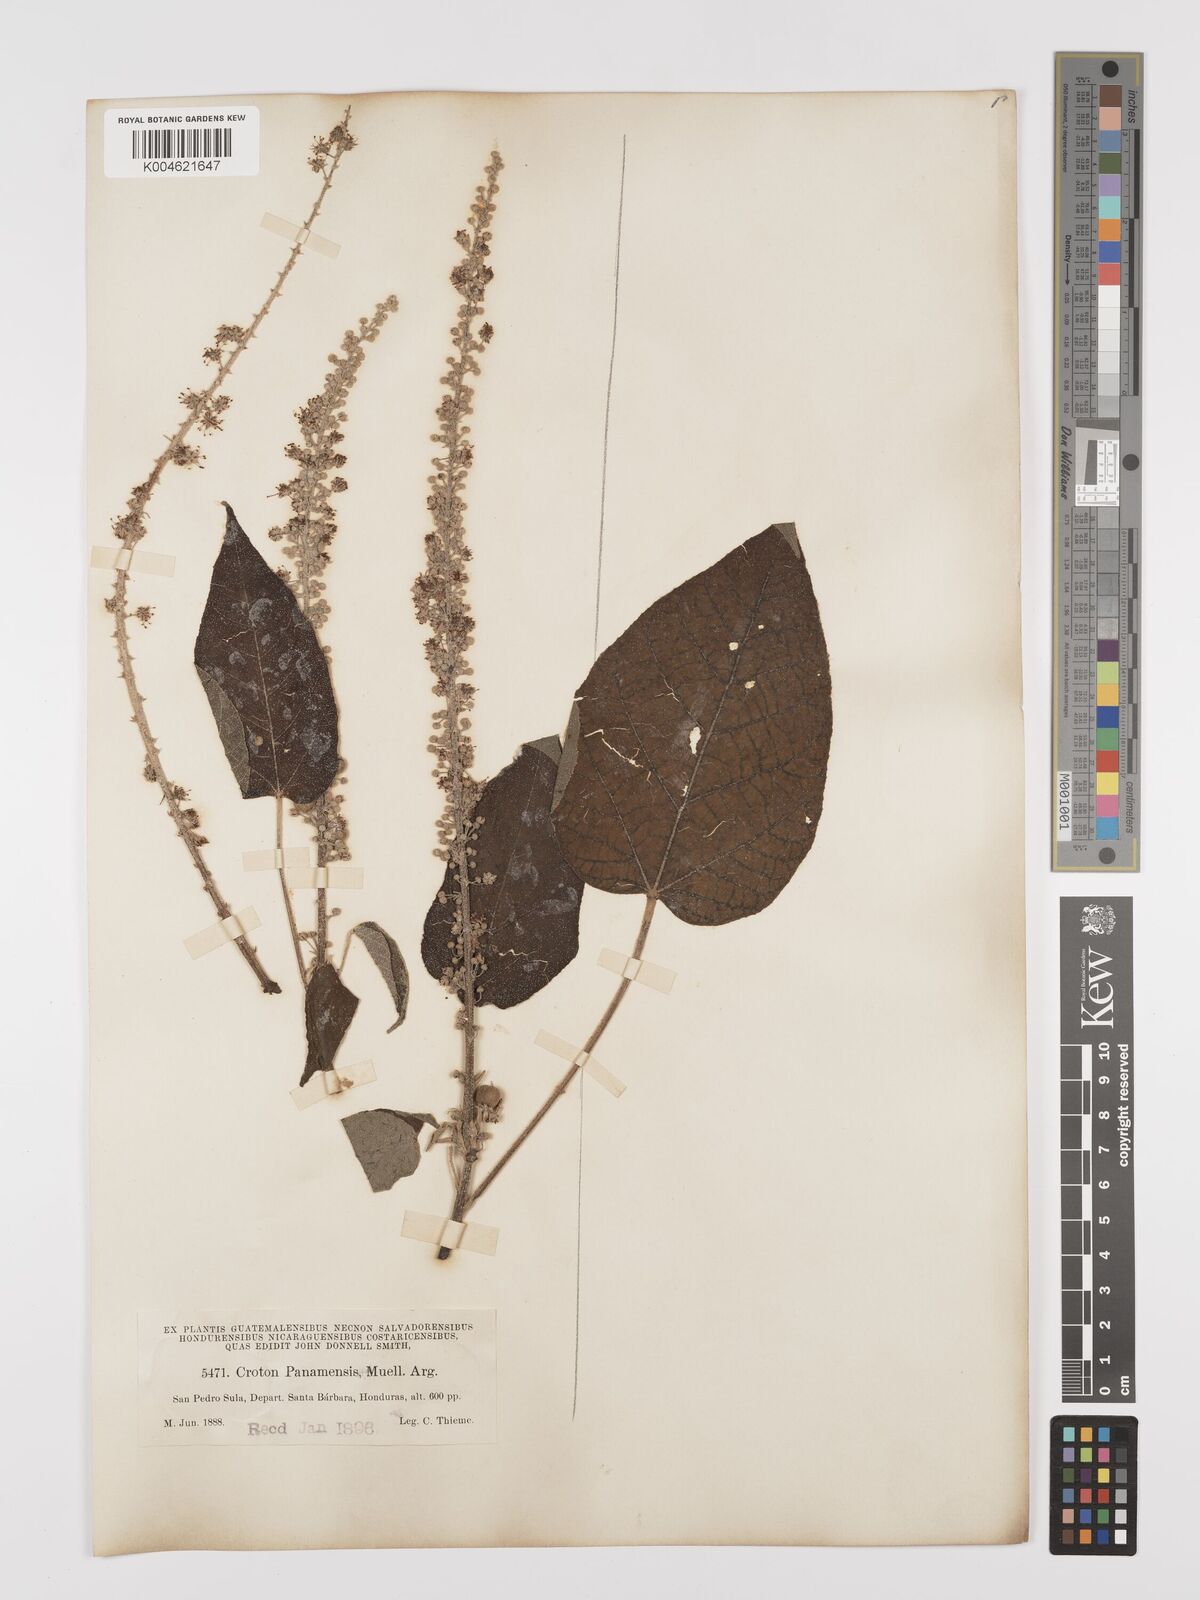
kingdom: Plantae
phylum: Tracheophyta
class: Magnoliopsida
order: Malpighiales
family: Euphorbiaceae
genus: Croton
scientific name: Croton draco
